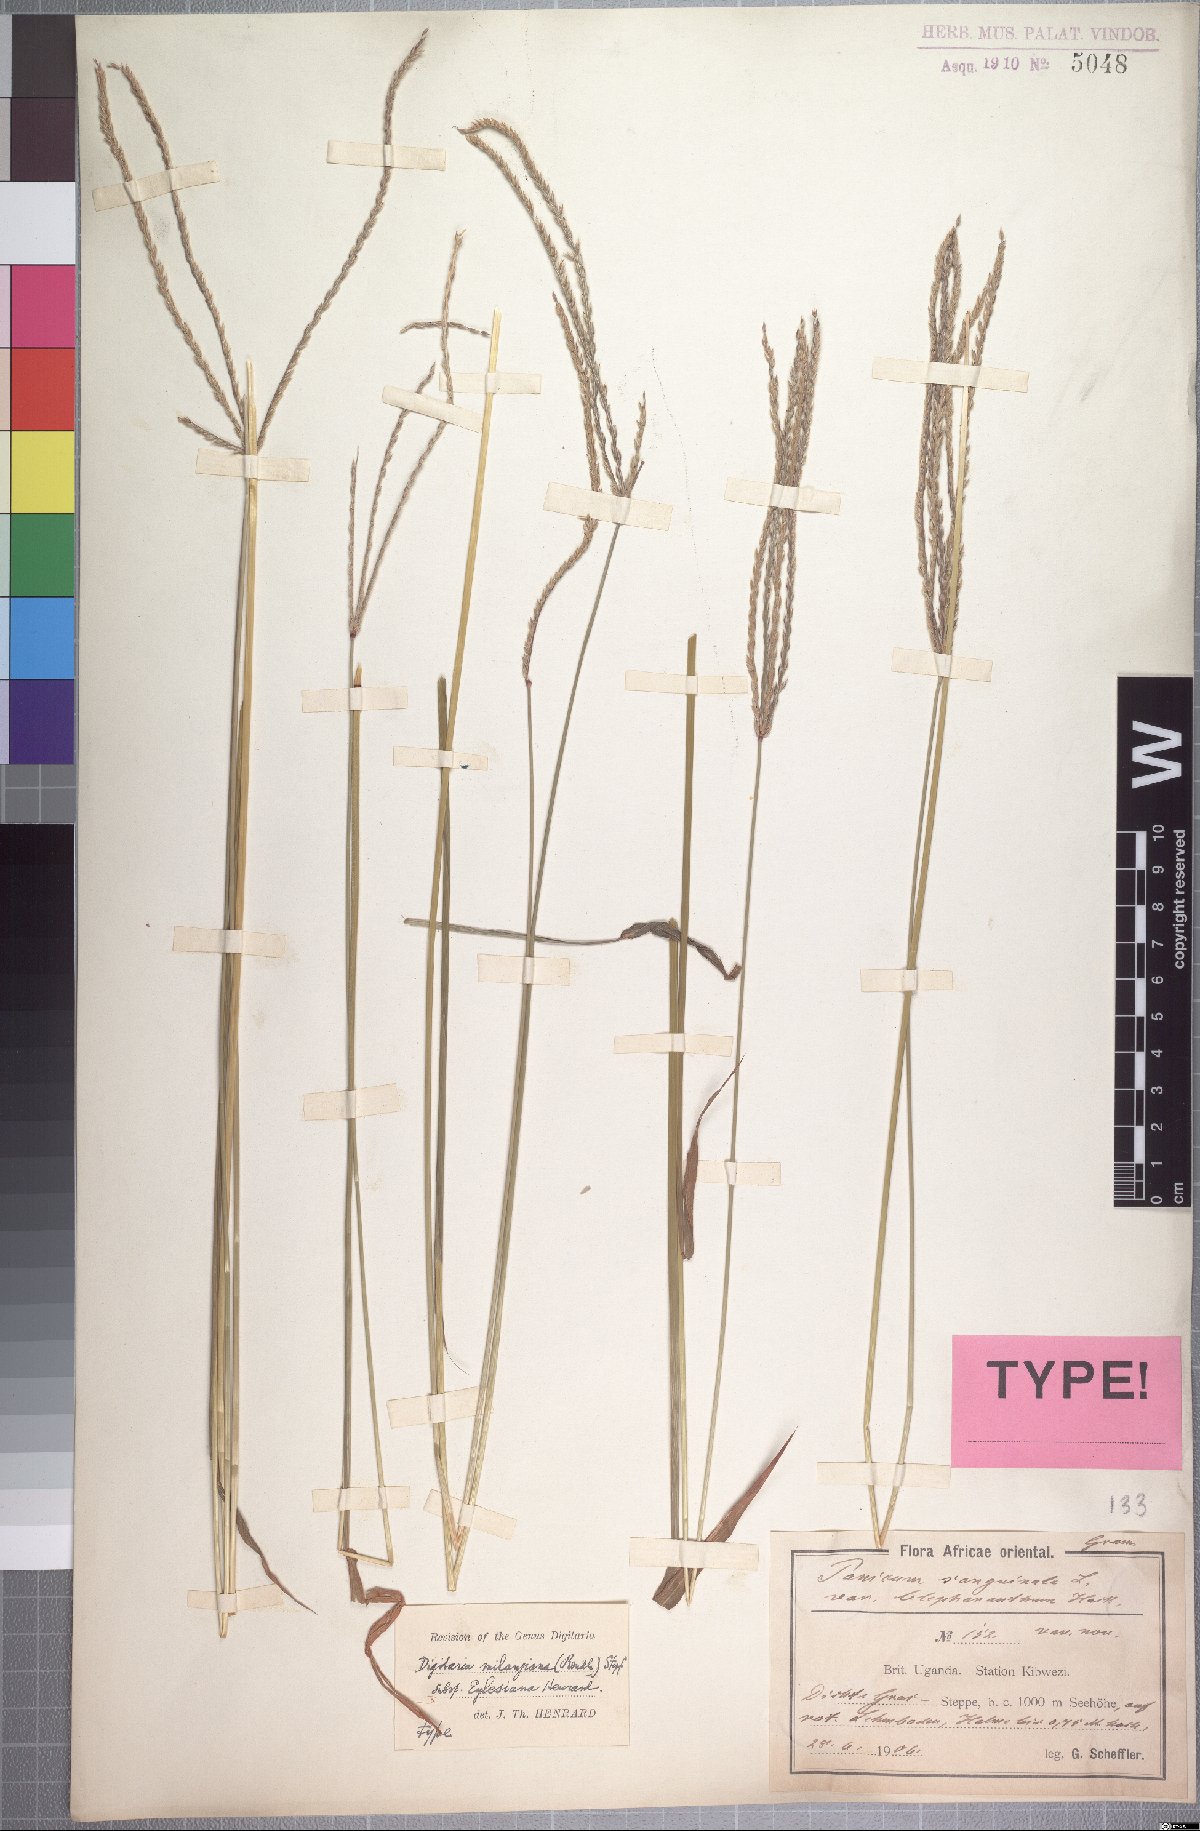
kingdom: Plantae
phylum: Tracheophyta
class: Liliopsida
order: Poales
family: Poaceae
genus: Digitaria
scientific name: Digitaria milanjiana
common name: Madagascar crabgrass
